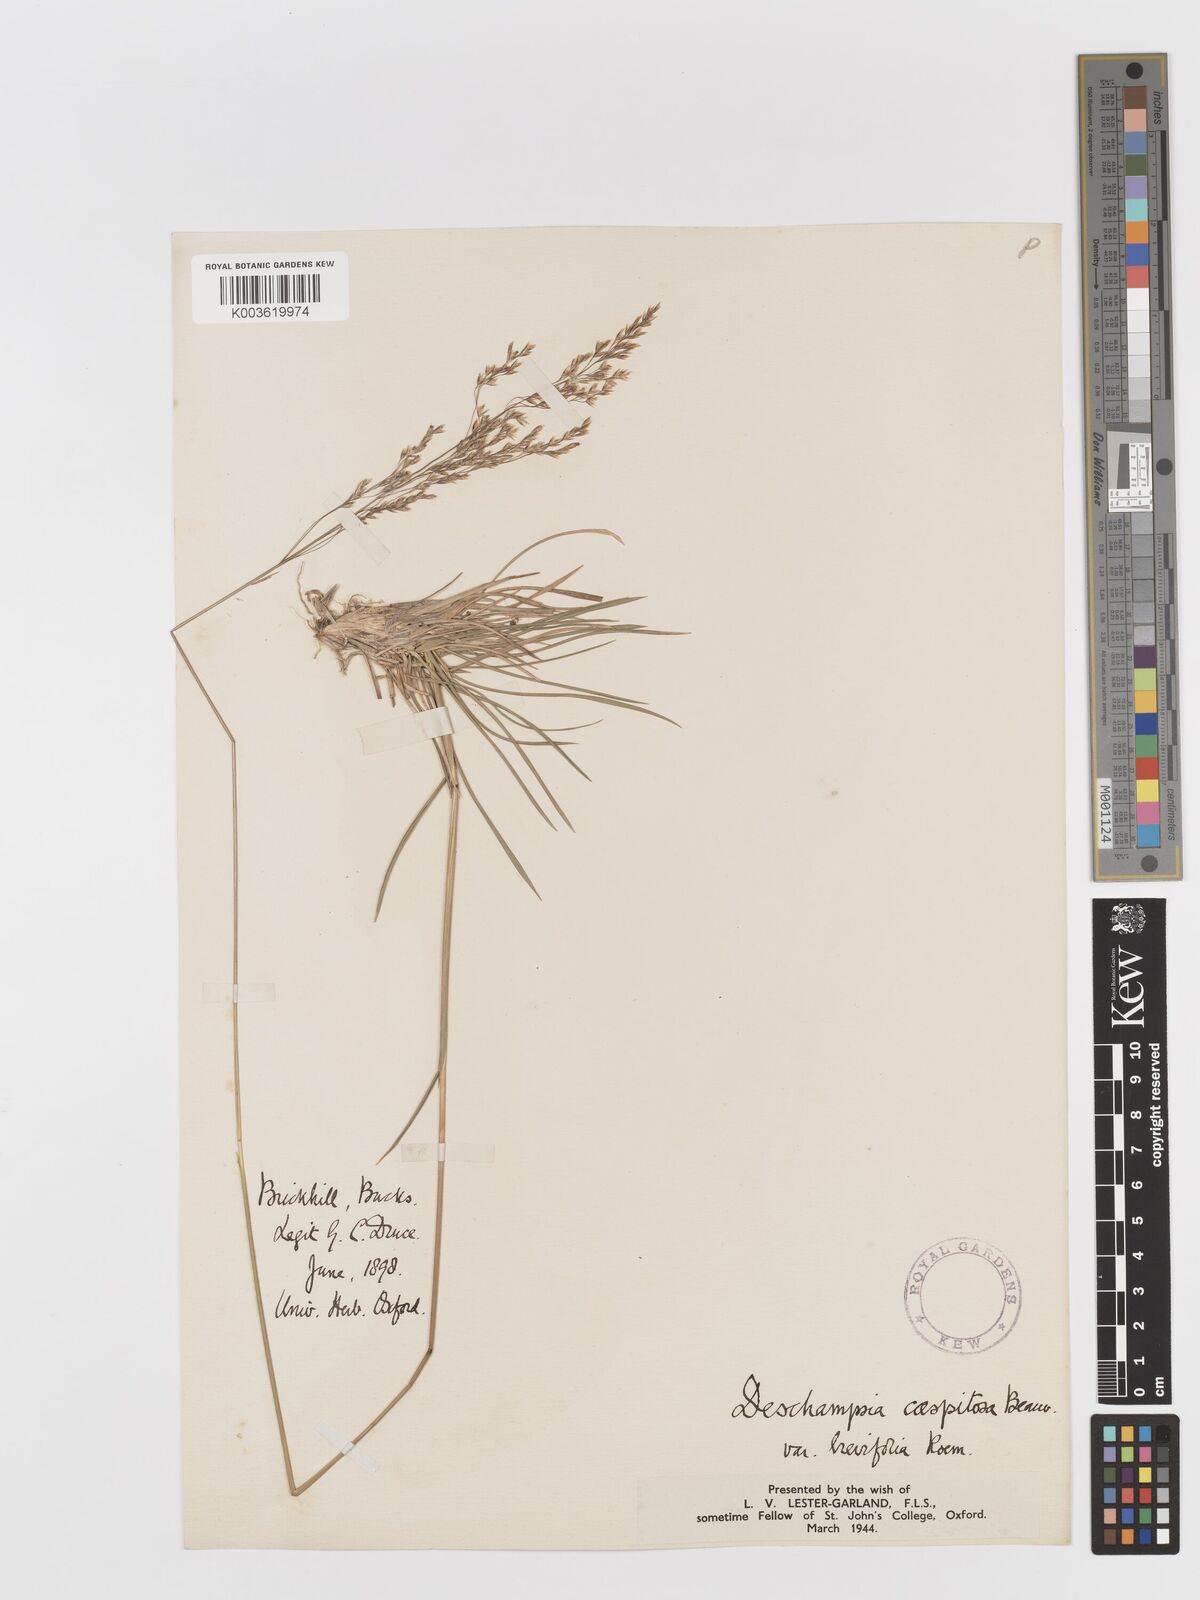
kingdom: Plantae
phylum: Tracheophyta
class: Liliopsida
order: Poales
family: Poaceae
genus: Deschampsia
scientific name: Deschampsia cespitosa
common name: Tufted hair-grass
